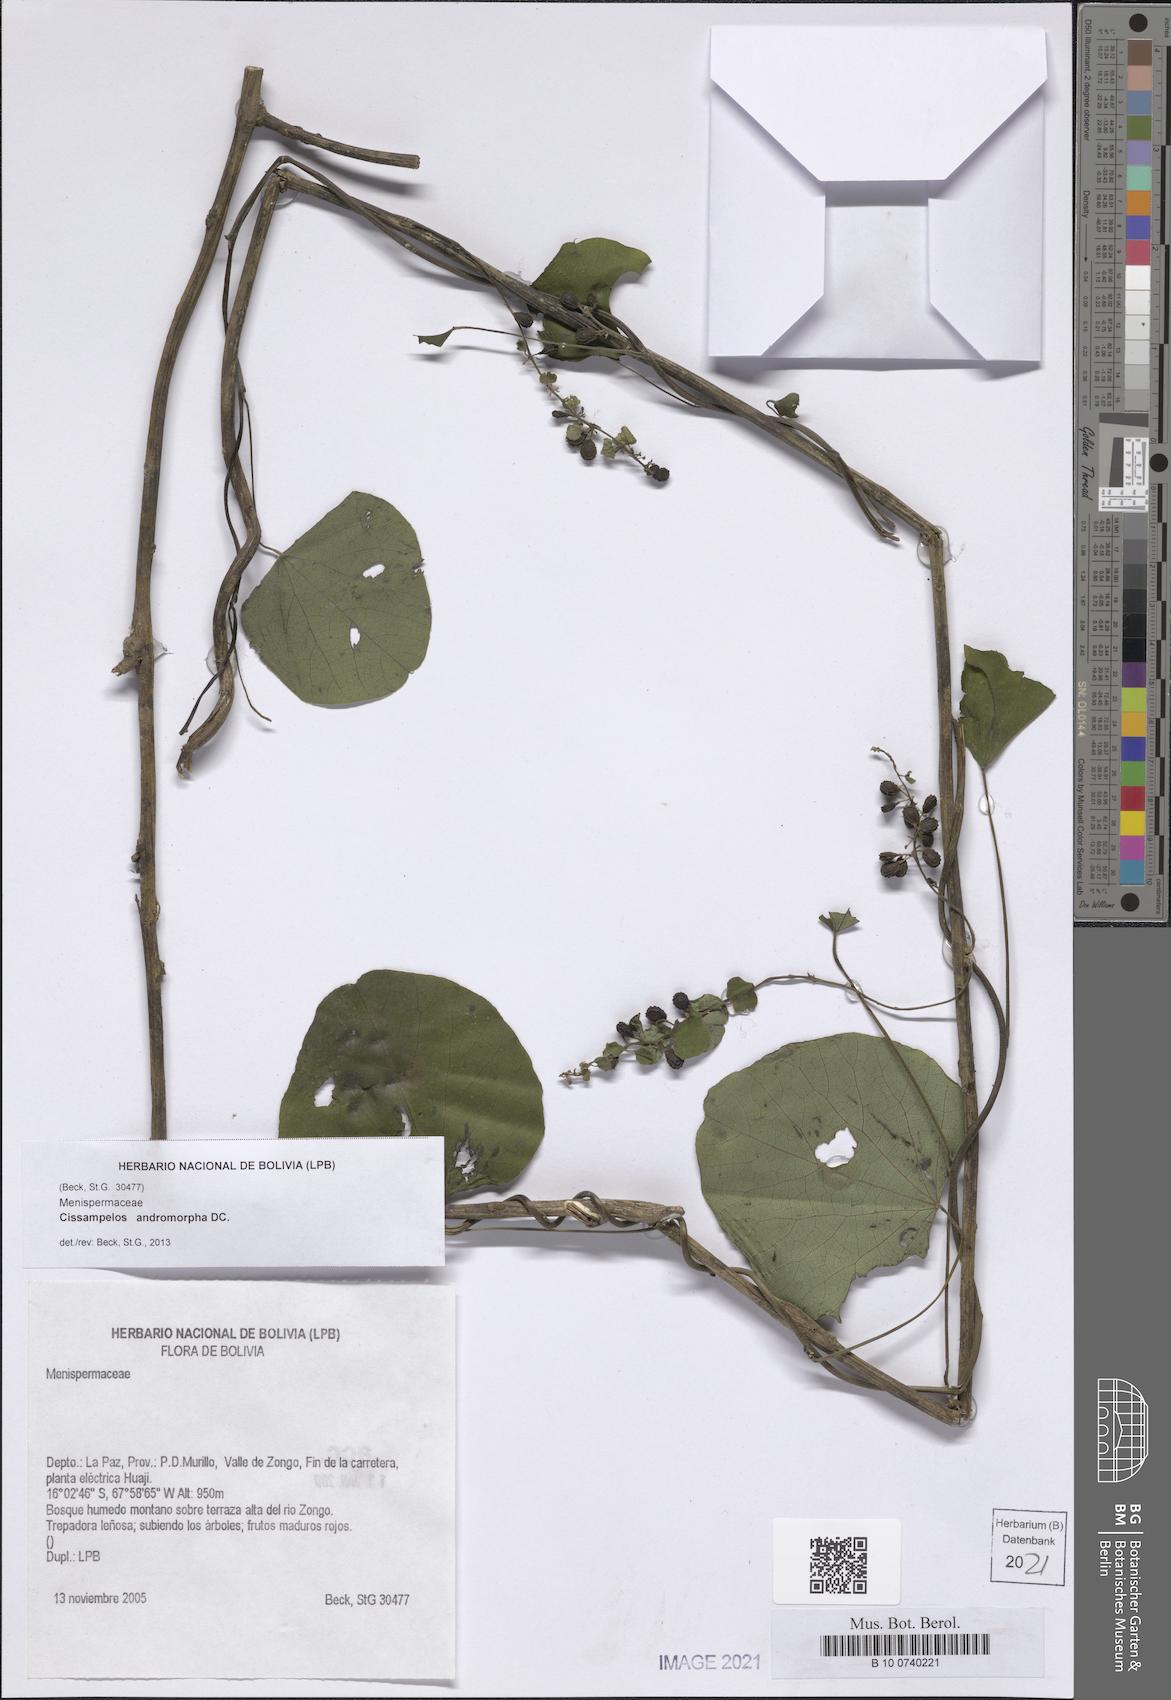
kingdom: Plantae
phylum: Tracheophyta
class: Magnoliopsida
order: Ranunculales
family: Menispermaceae
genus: Cissampelos
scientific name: Cissampelos andromorpha
